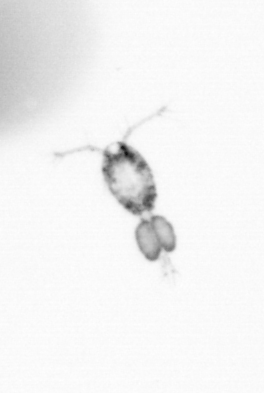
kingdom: Animalia
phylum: Arthropoda
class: Copepoda
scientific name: Copepoda
